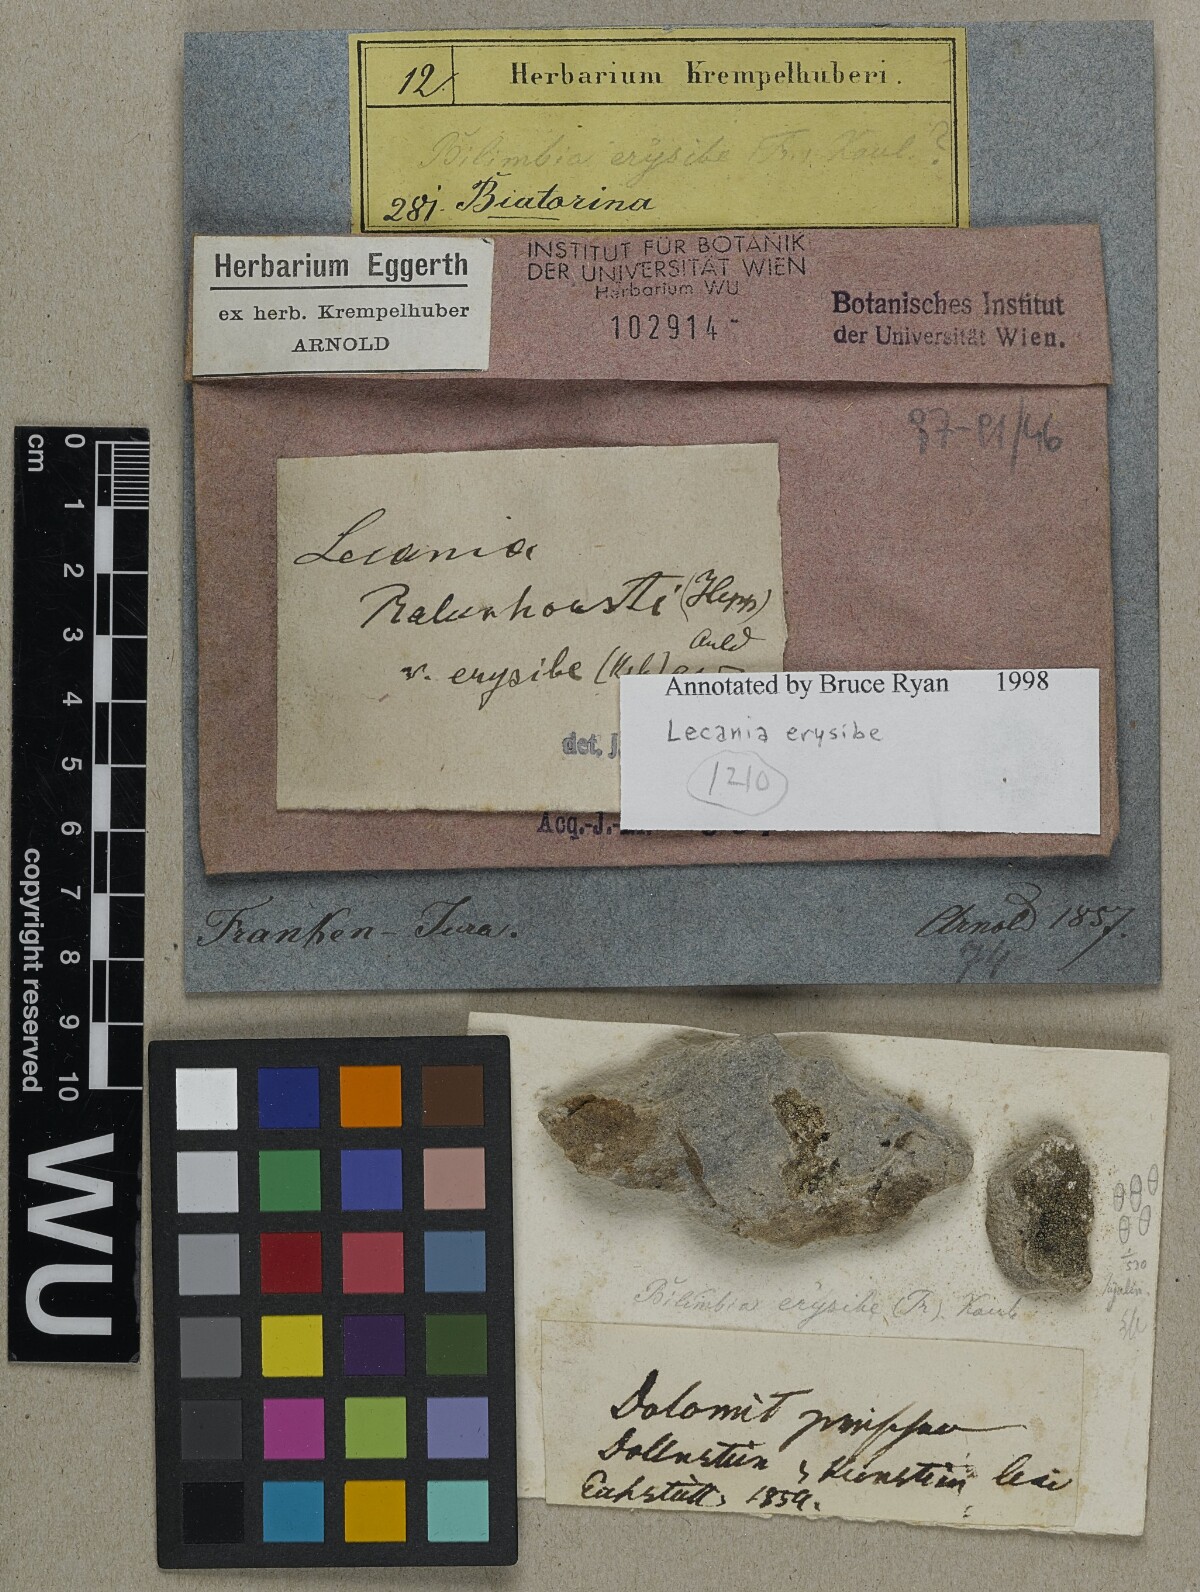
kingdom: Fungi
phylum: Ascomycota
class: Lecanoromycetes
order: Lecanorales
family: Ramalinaceae
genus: Lecania
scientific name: Lecania erysibe
